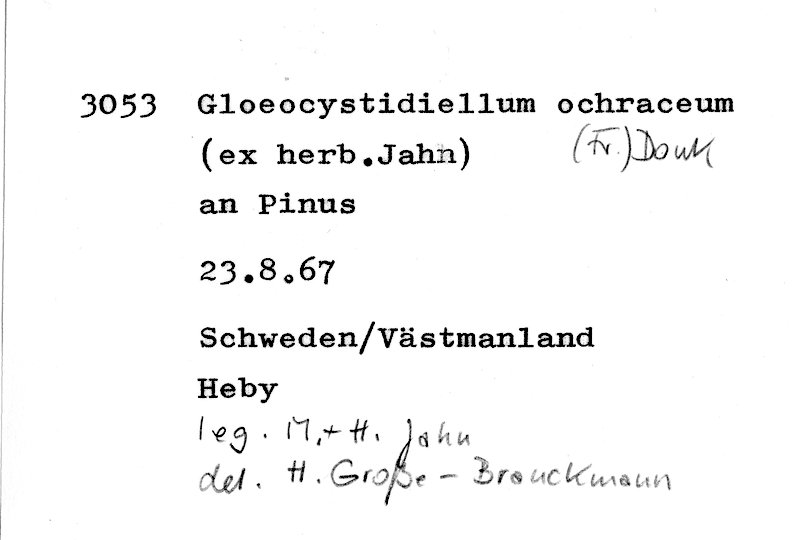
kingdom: Fungi
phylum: Basidiomycota
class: Agaricomycetes
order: Russulales
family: Stereaceae
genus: Conferticium
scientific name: Conferticium ochraceum
